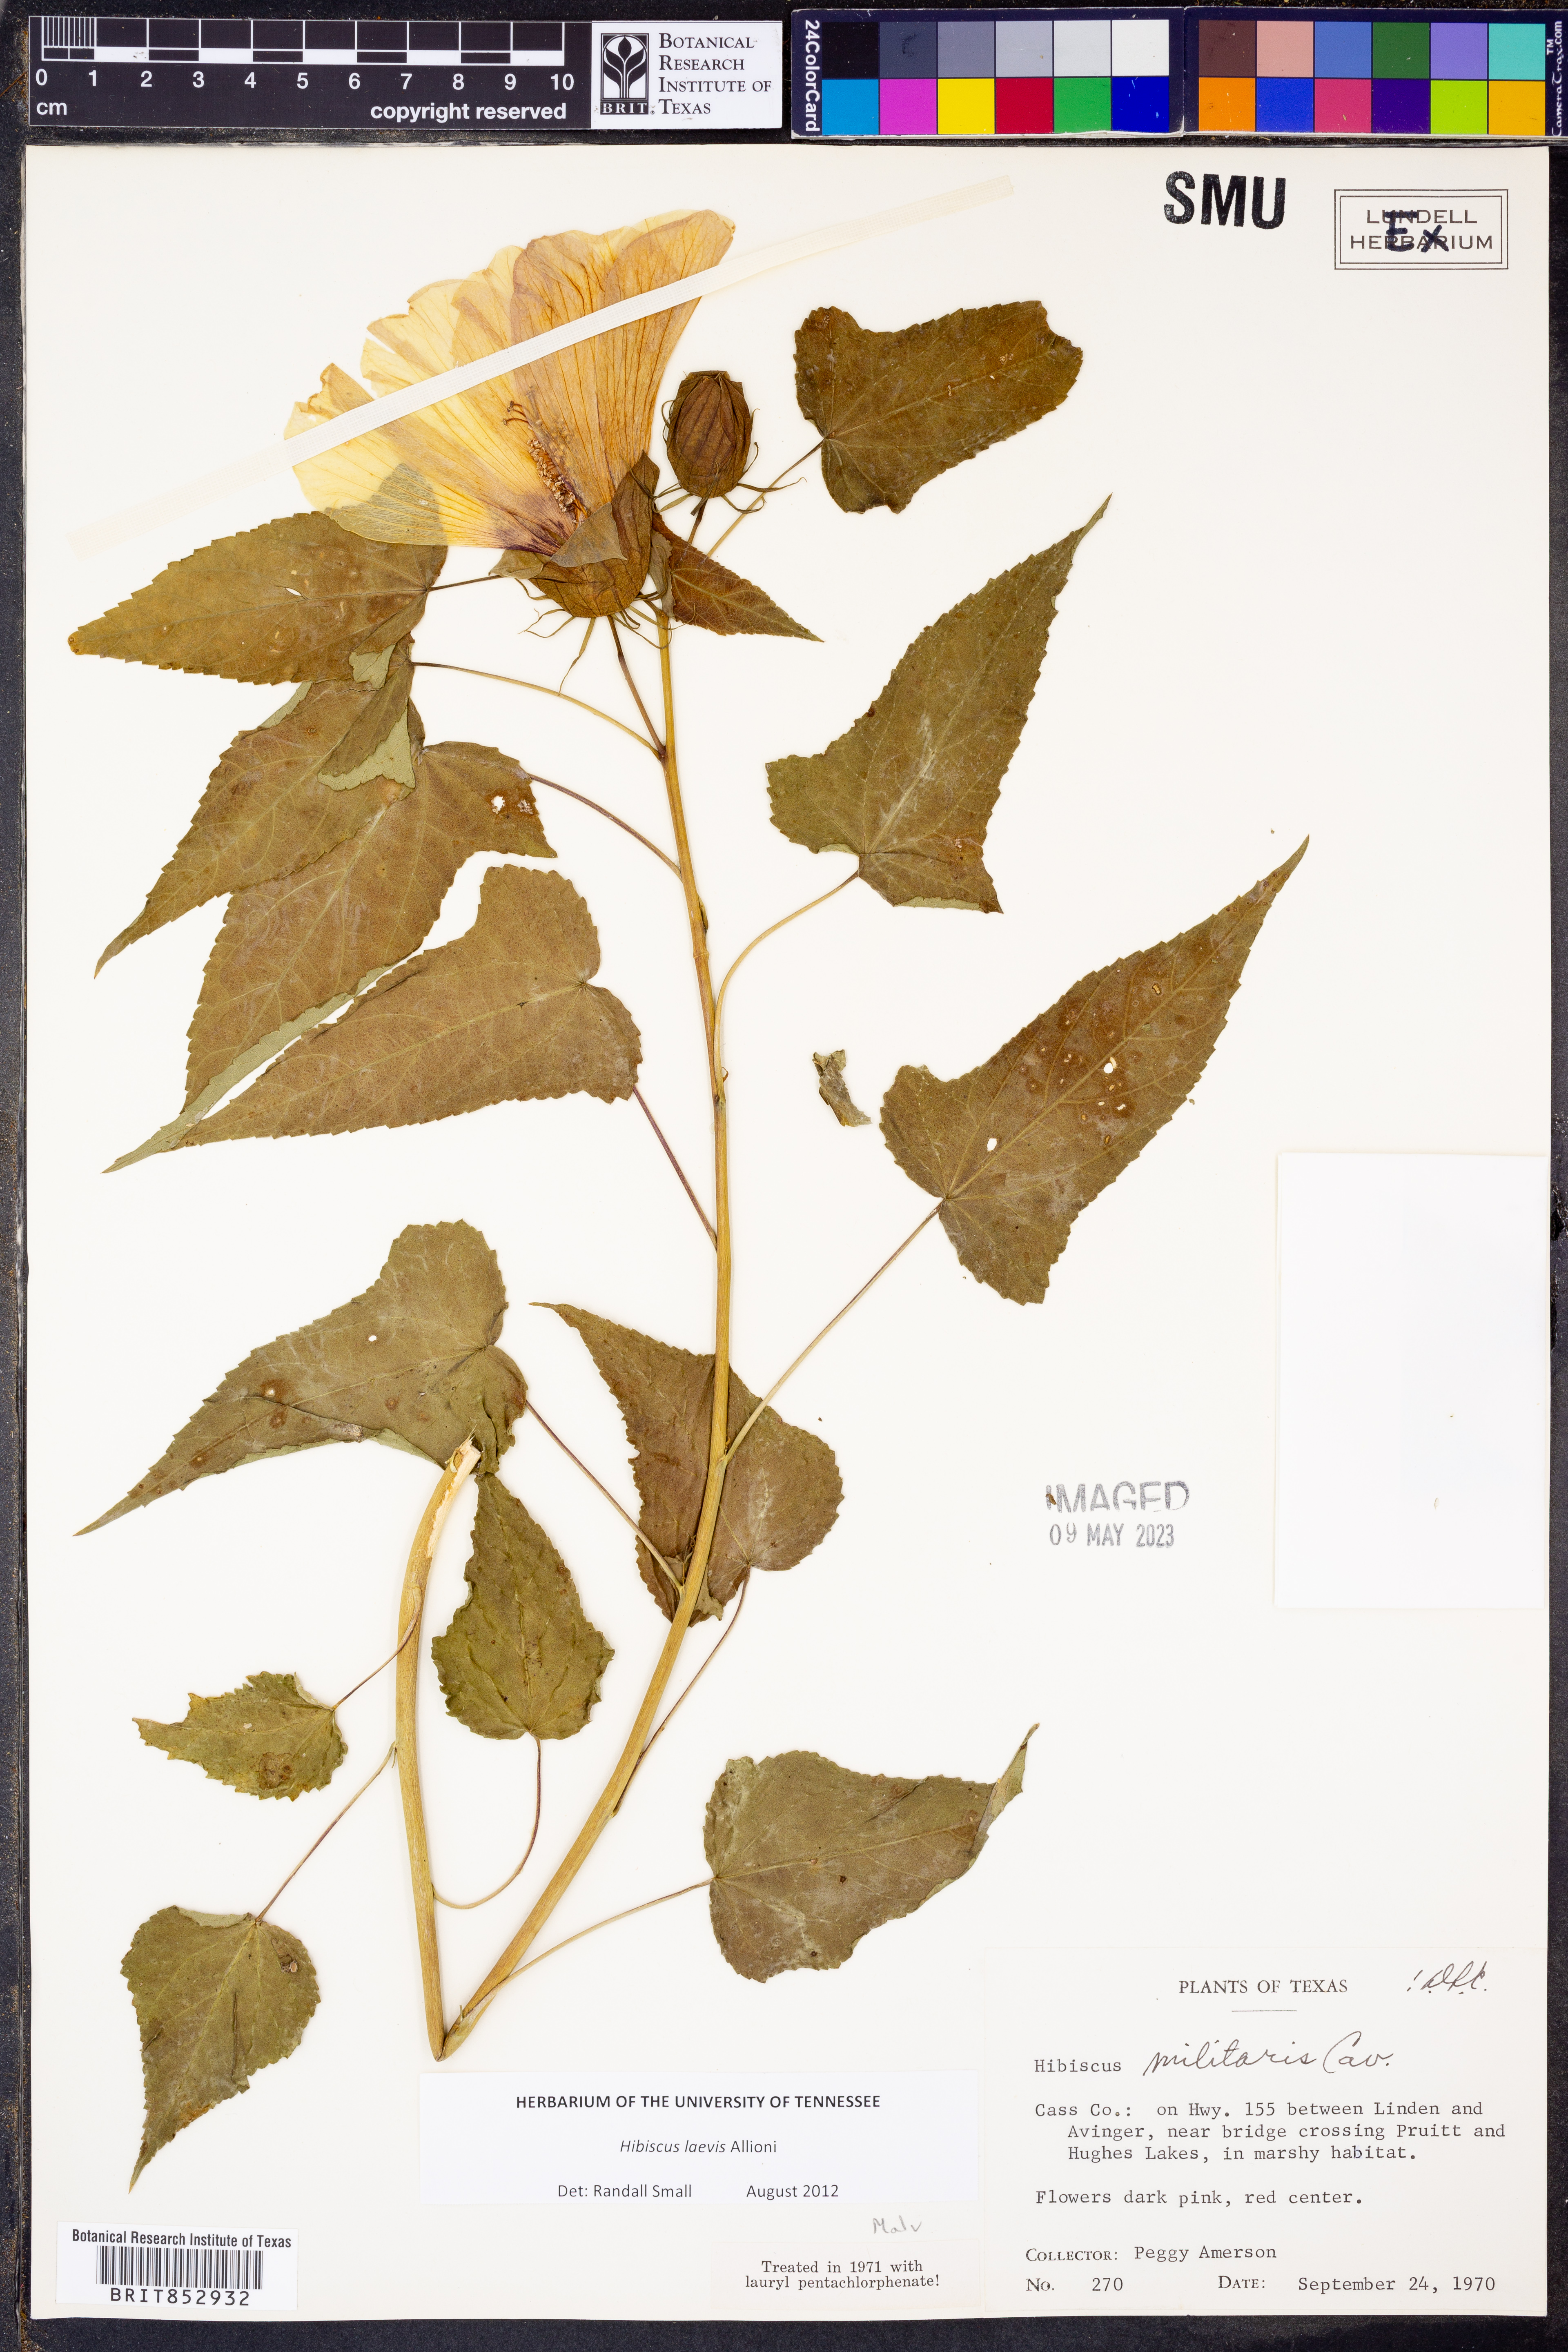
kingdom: Plantae
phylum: Tracheophyta
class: Magnoliopsida
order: Malvales
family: Malvaceae
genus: Hibiscus
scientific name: Hibiscus laevis
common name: Scarlet rose-mallow
